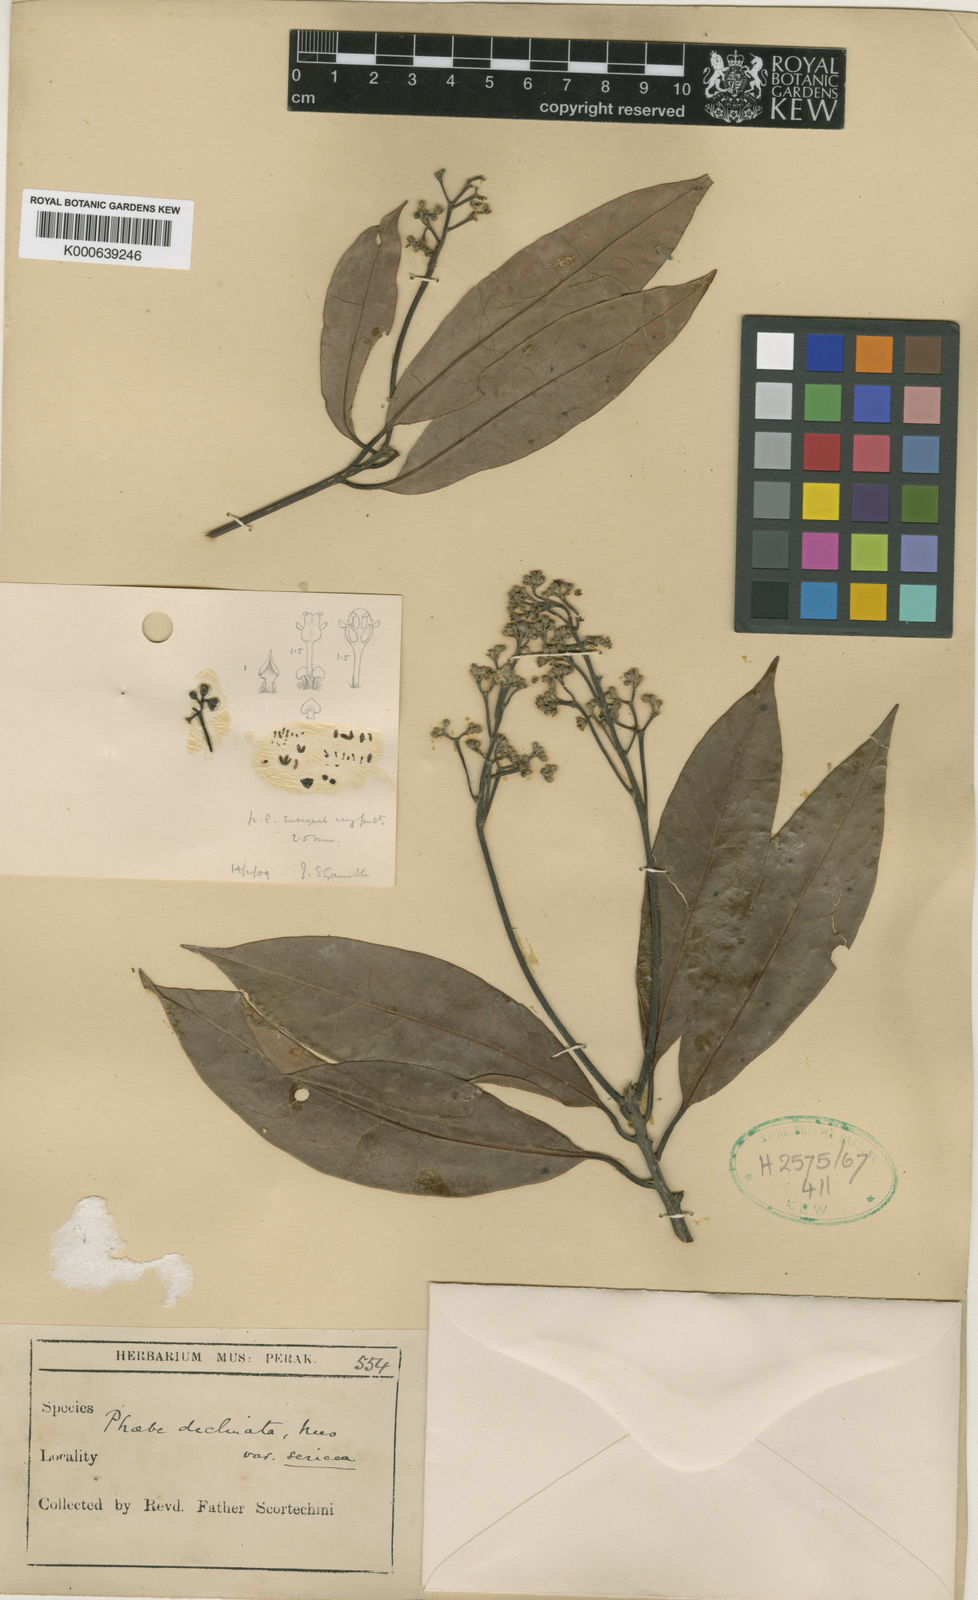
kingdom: Plantae
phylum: Tracheophyta
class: Magnoliopsida
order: Laurales
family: Lauraceae
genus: Machilus
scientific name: Machilus declinata
